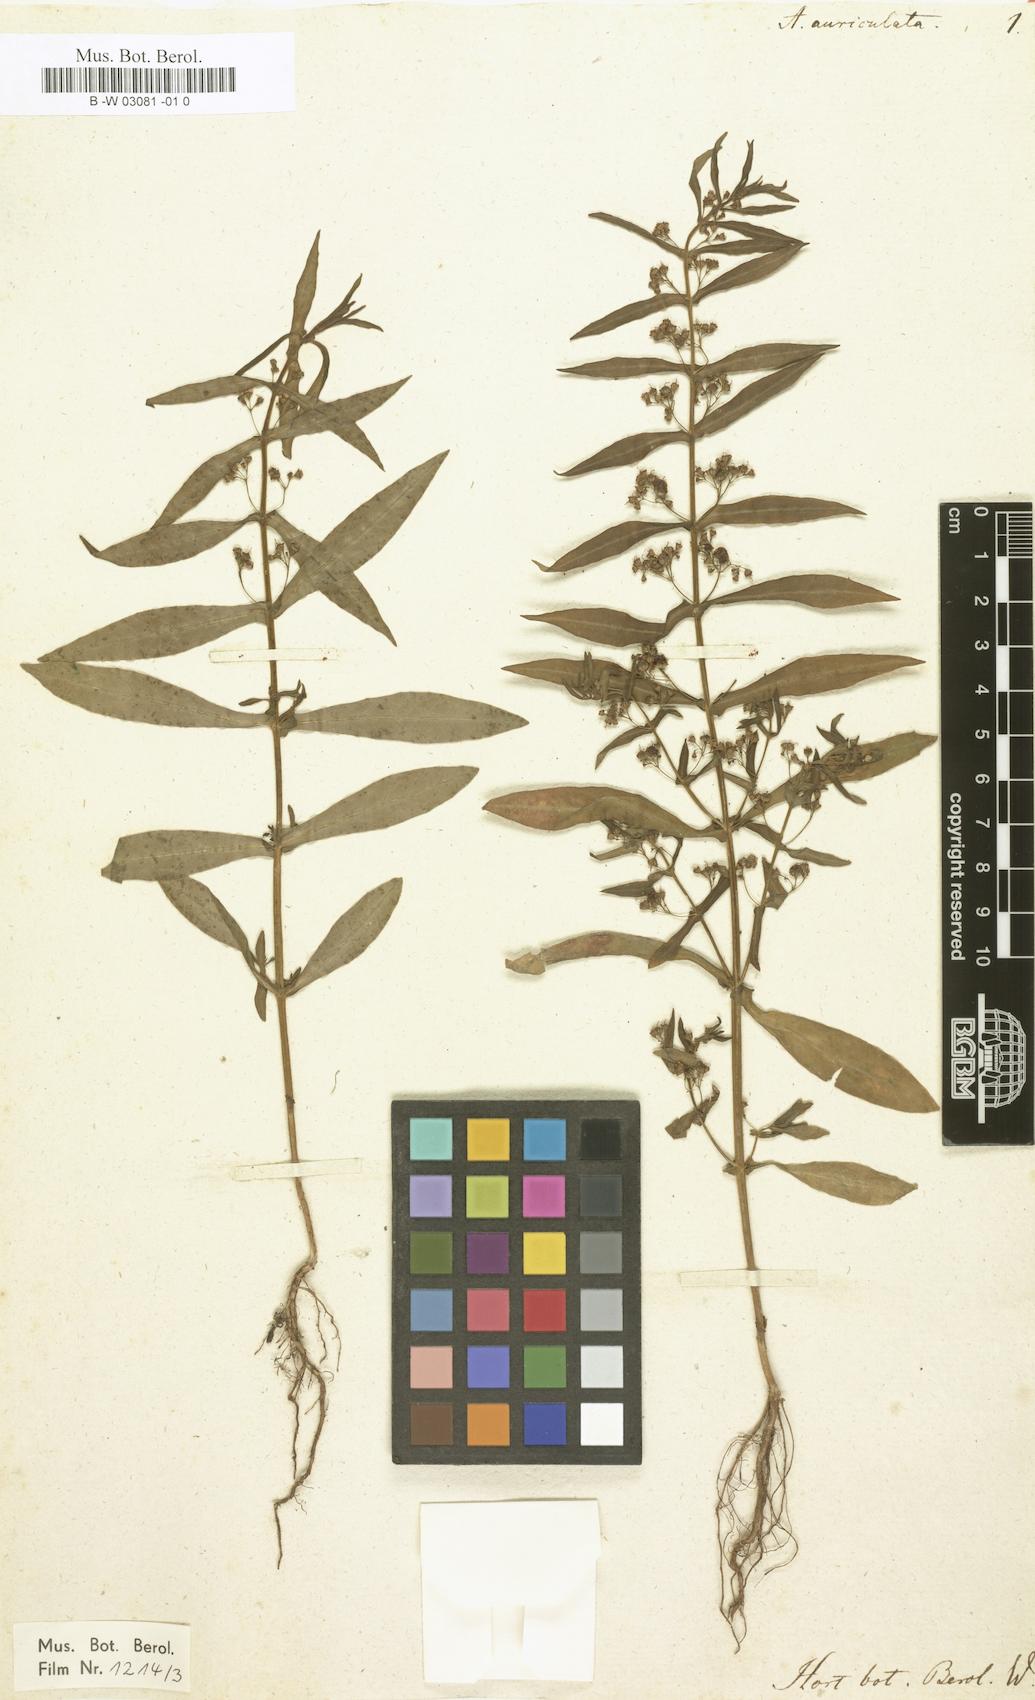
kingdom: Plantae
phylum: Tracheophyta
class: Magnoliopsida
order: Myrtales
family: Lythraceae
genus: Ammannia
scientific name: Ammannia auriculata
